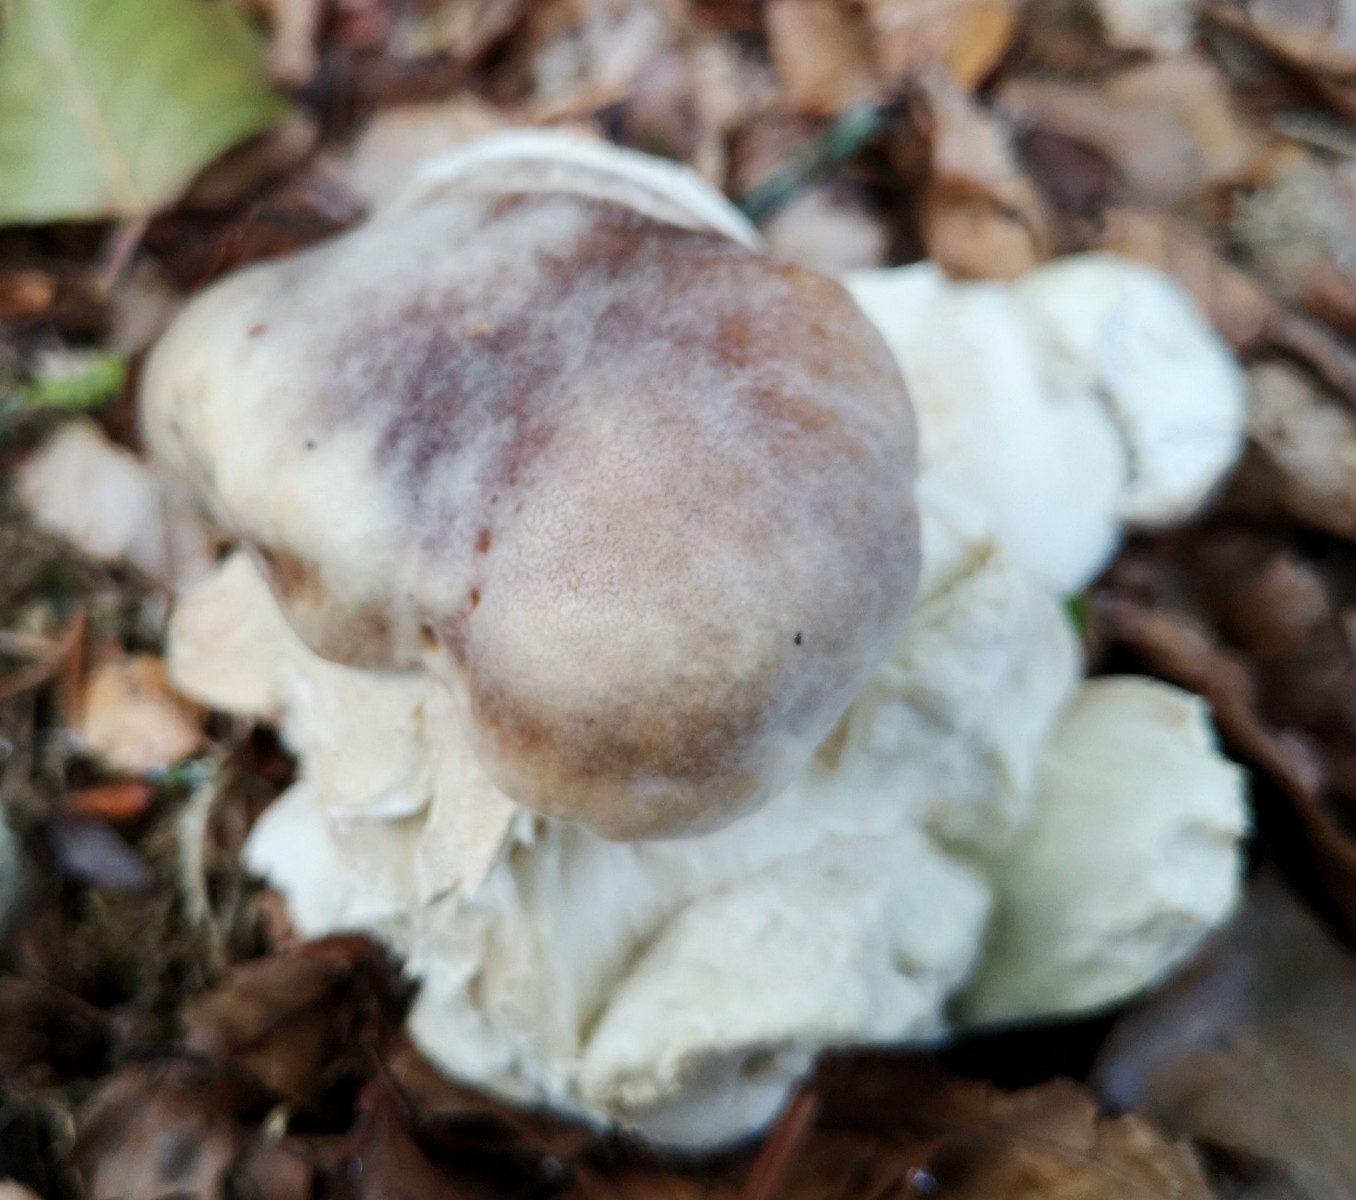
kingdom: Fungi
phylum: Basidiomycota
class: Agaricomycetes
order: Boletales
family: Boletaceae
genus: Boletus
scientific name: Boletus
